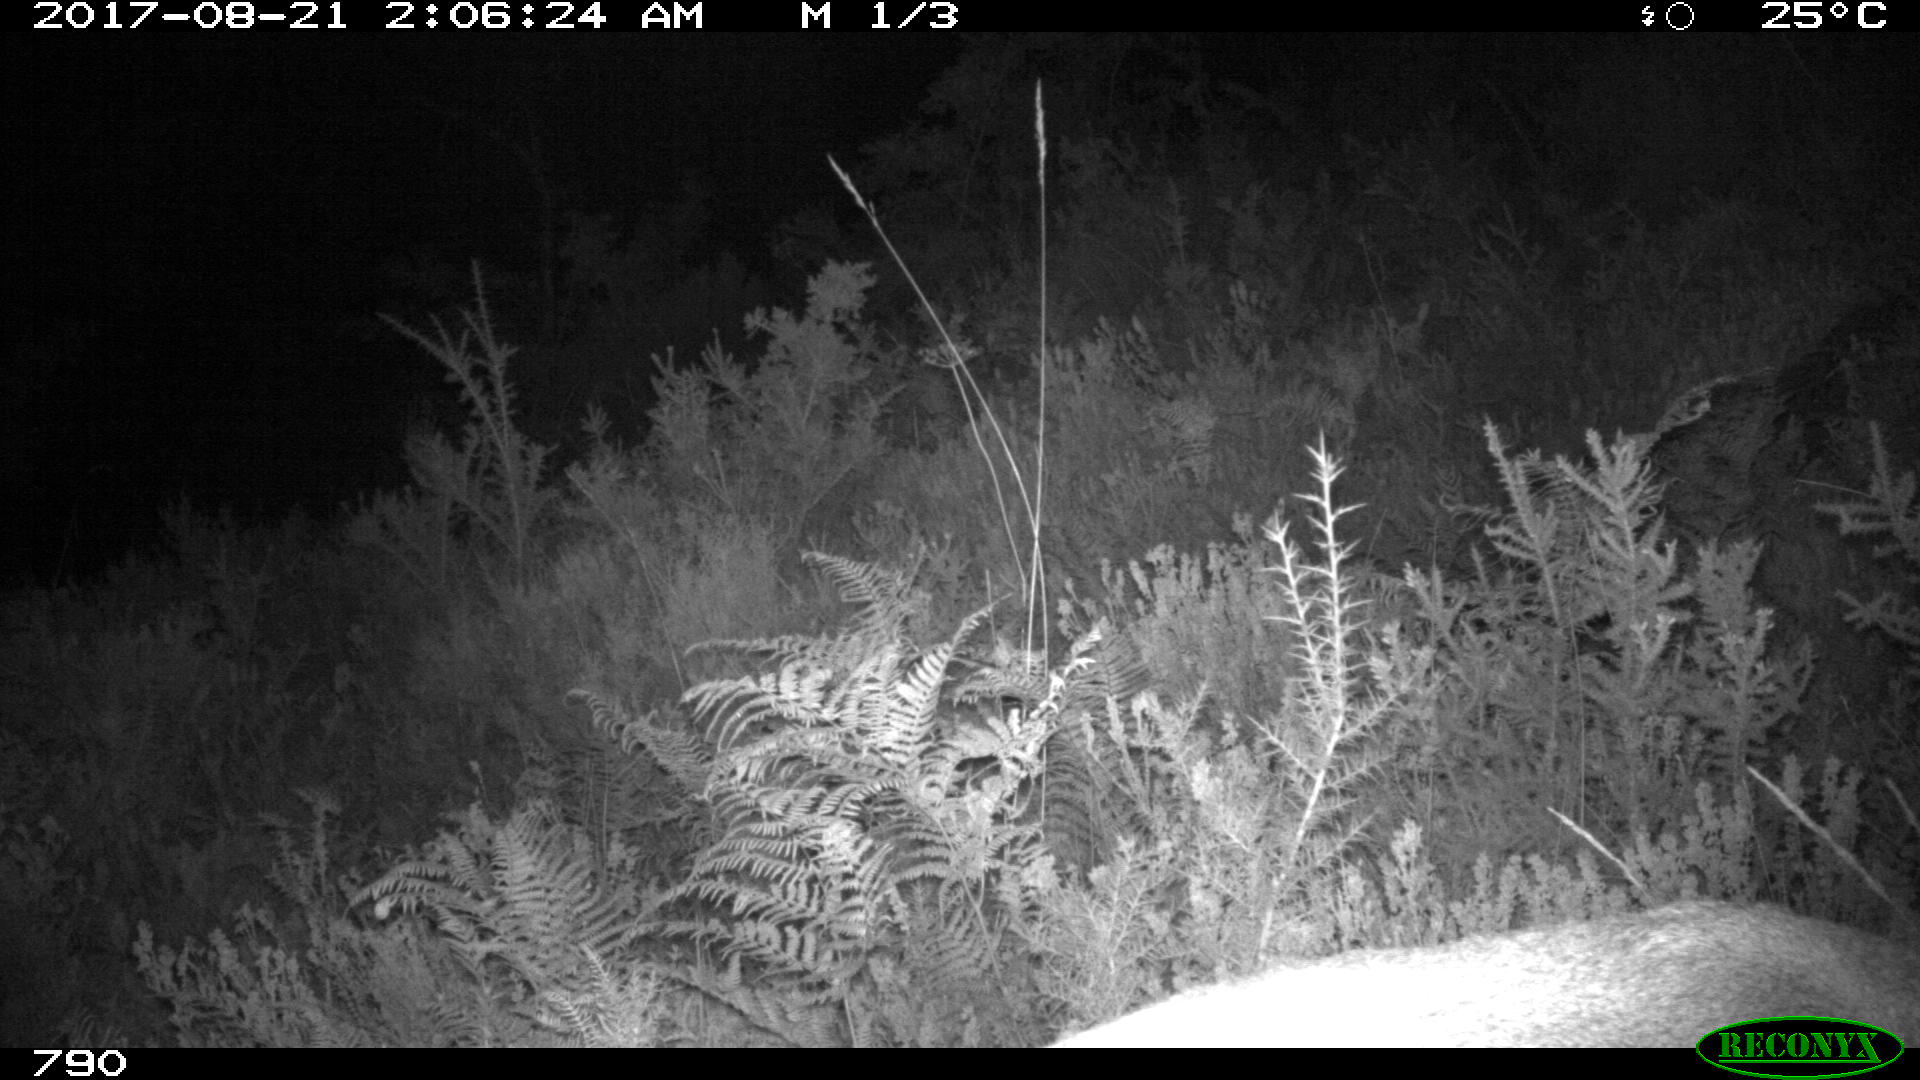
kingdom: Animalia
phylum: Chordata
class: Mammalia
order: Artiodactyla
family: Cervidae
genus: Capreolus
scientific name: Capreolus capreolus
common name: Western roe deer
